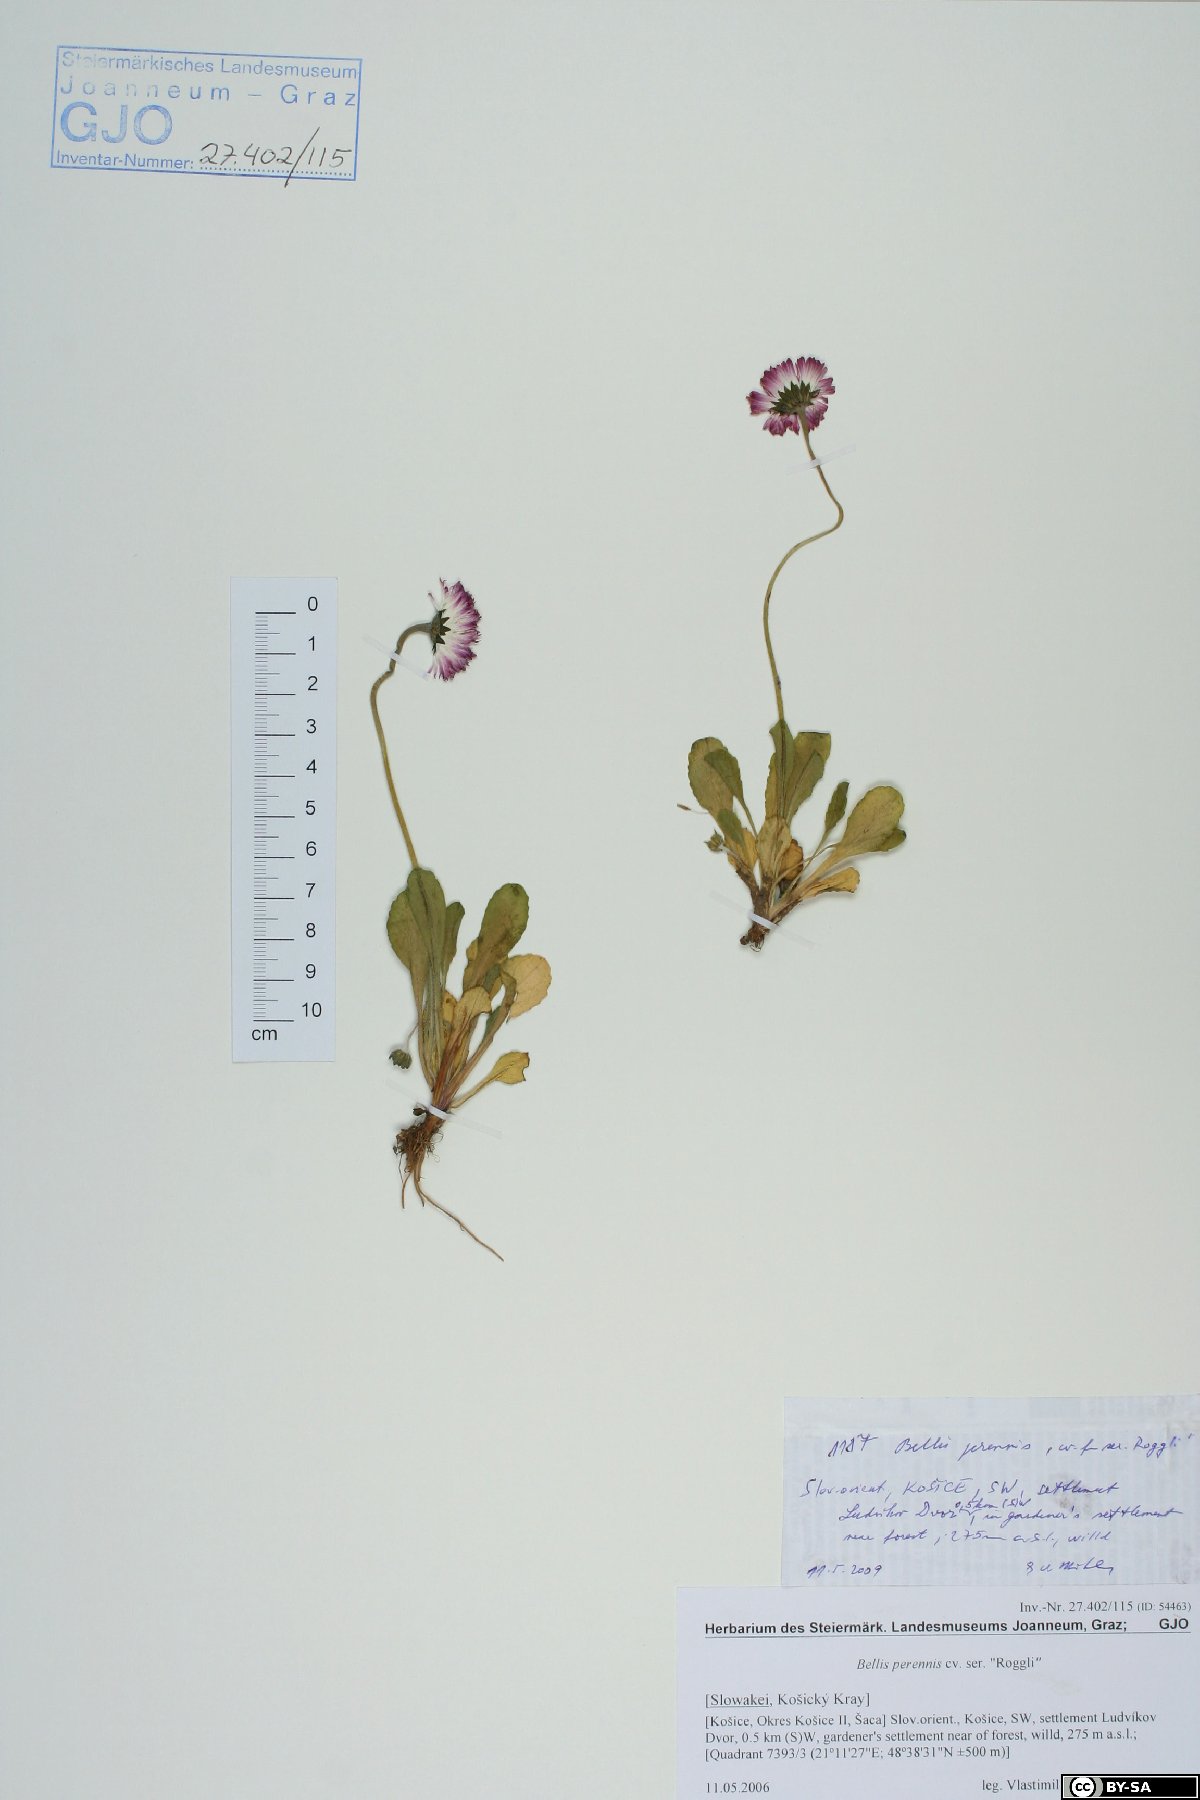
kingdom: Plantae
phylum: Tracheophyta
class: Magnoliopsida
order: Asterales
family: Asteraceae
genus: Bellis
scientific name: Bellis perennis
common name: Lawndaisy
